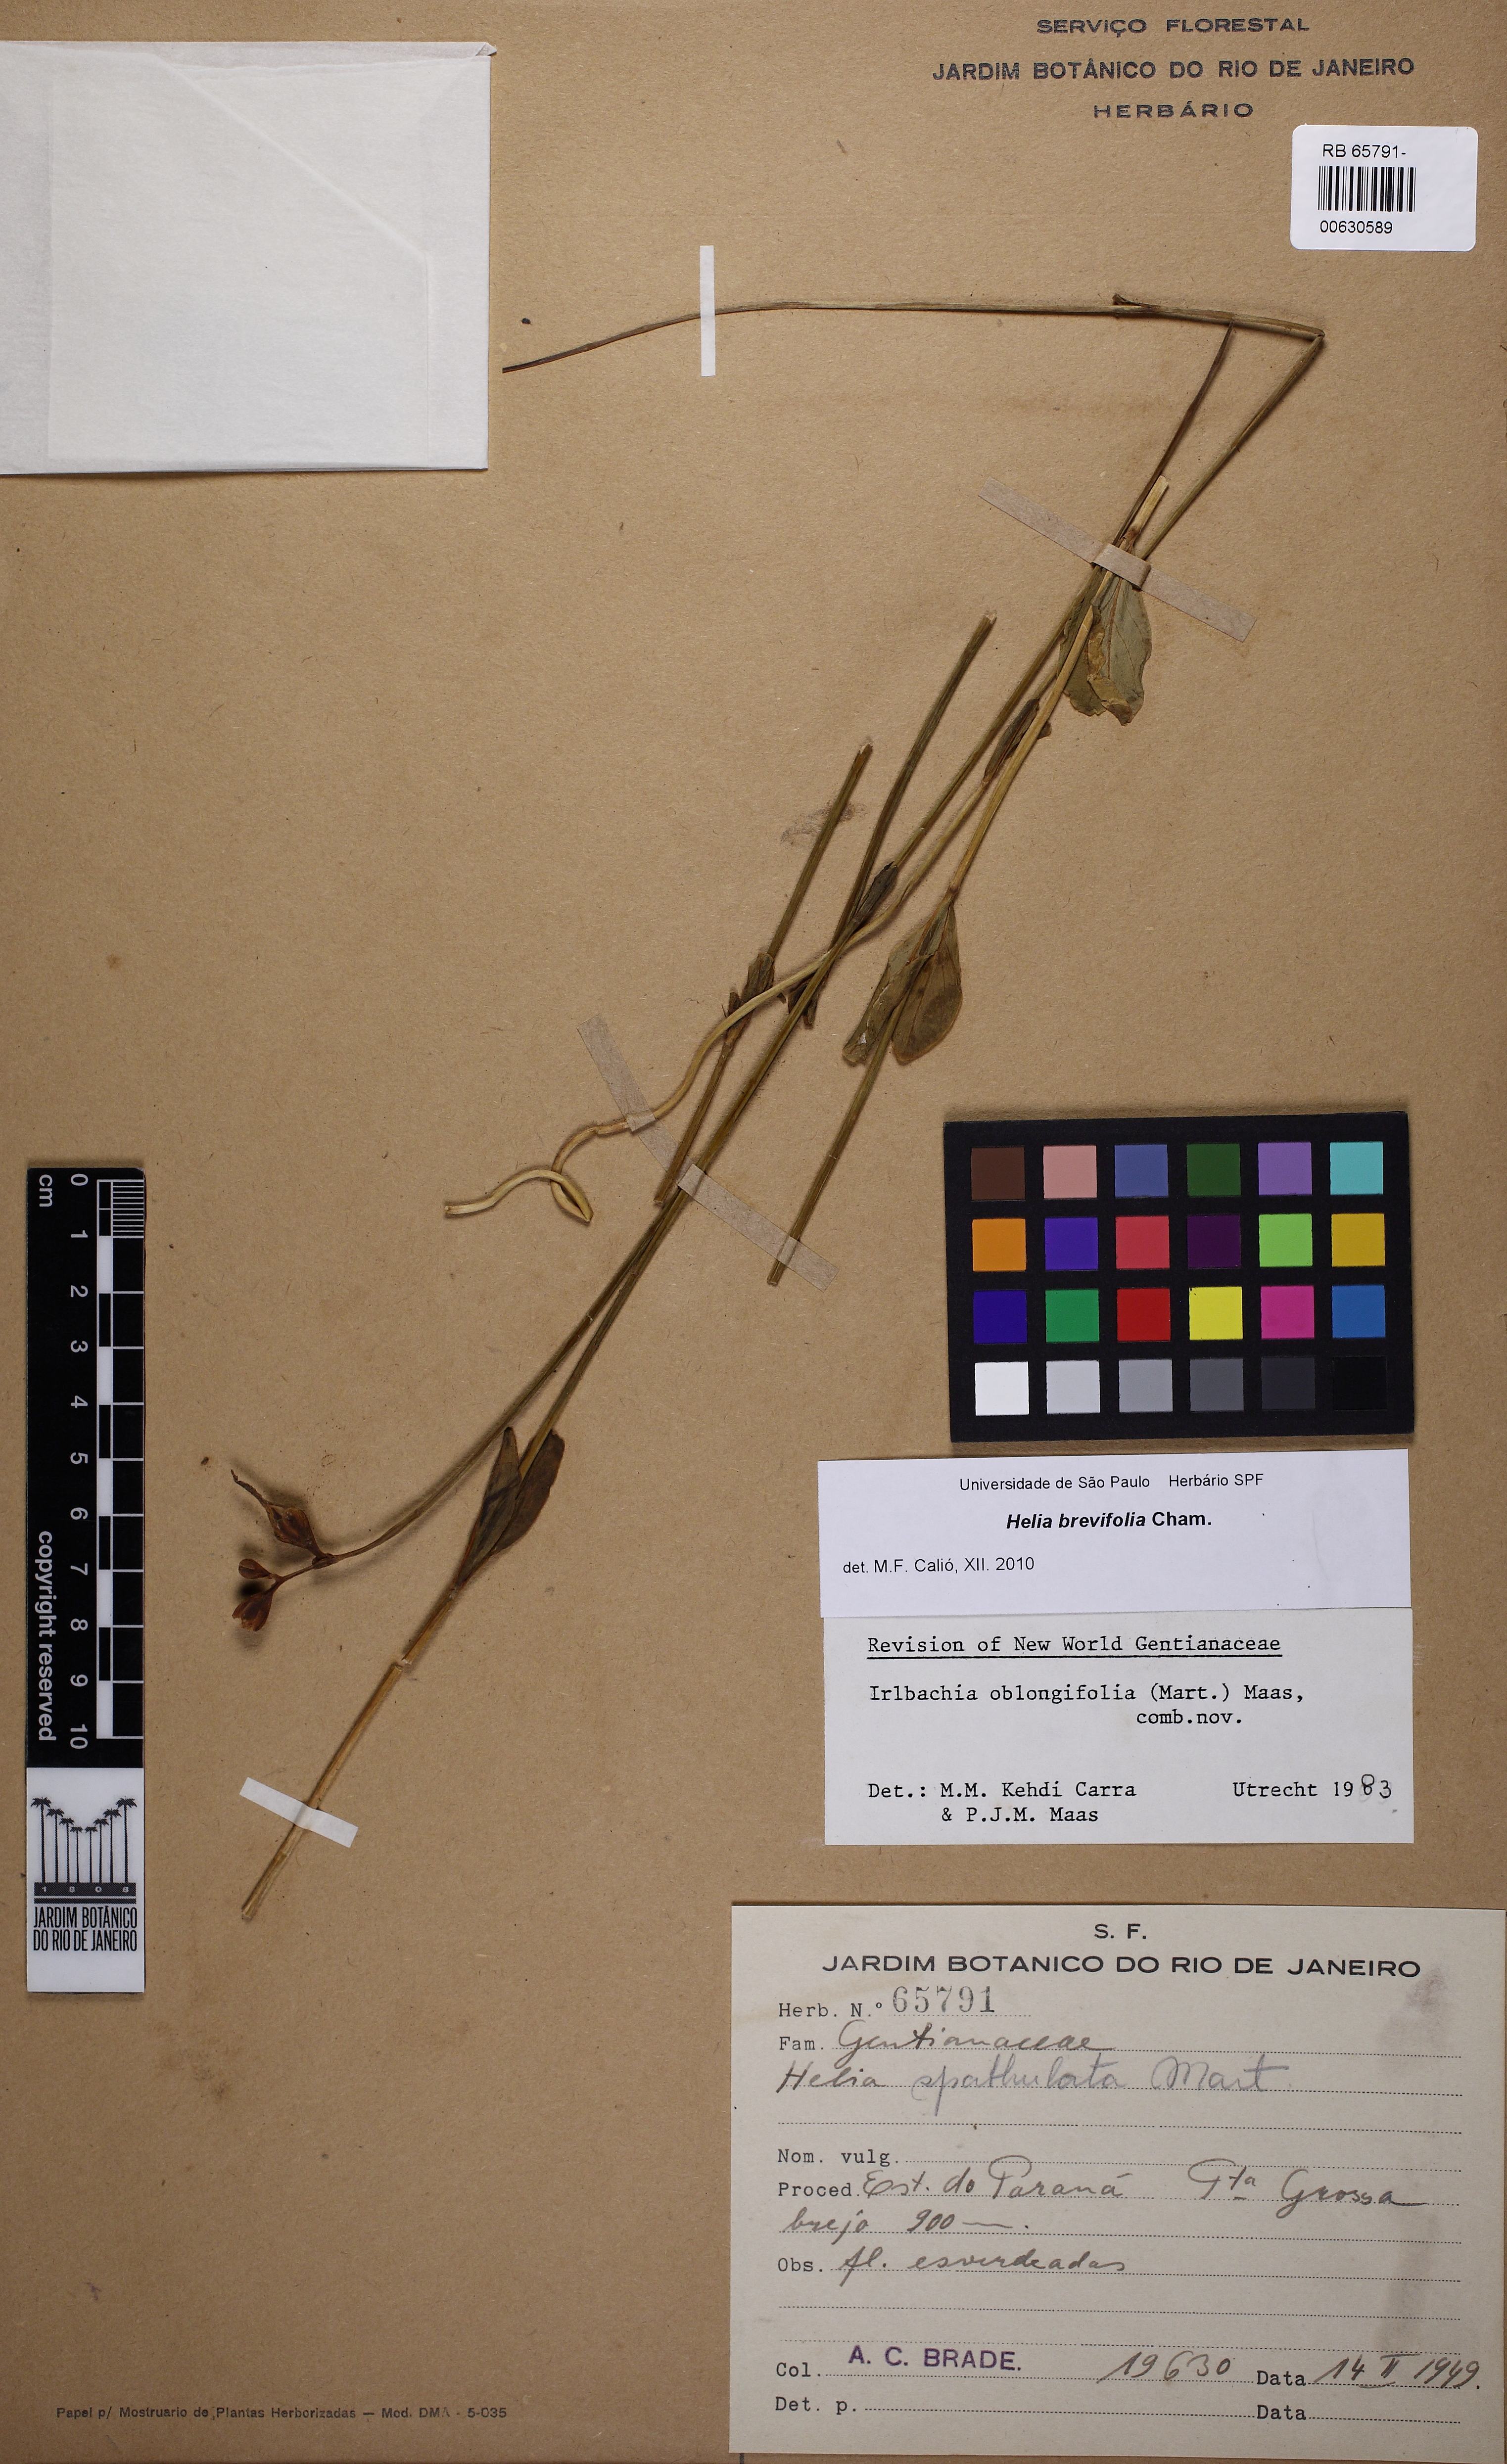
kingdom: Plantae
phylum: Tracheophyta
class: Magnoliopsida
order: Gentianales
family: Gentianaceae
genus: Irlbachia
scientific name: Irlbachia breviflora
